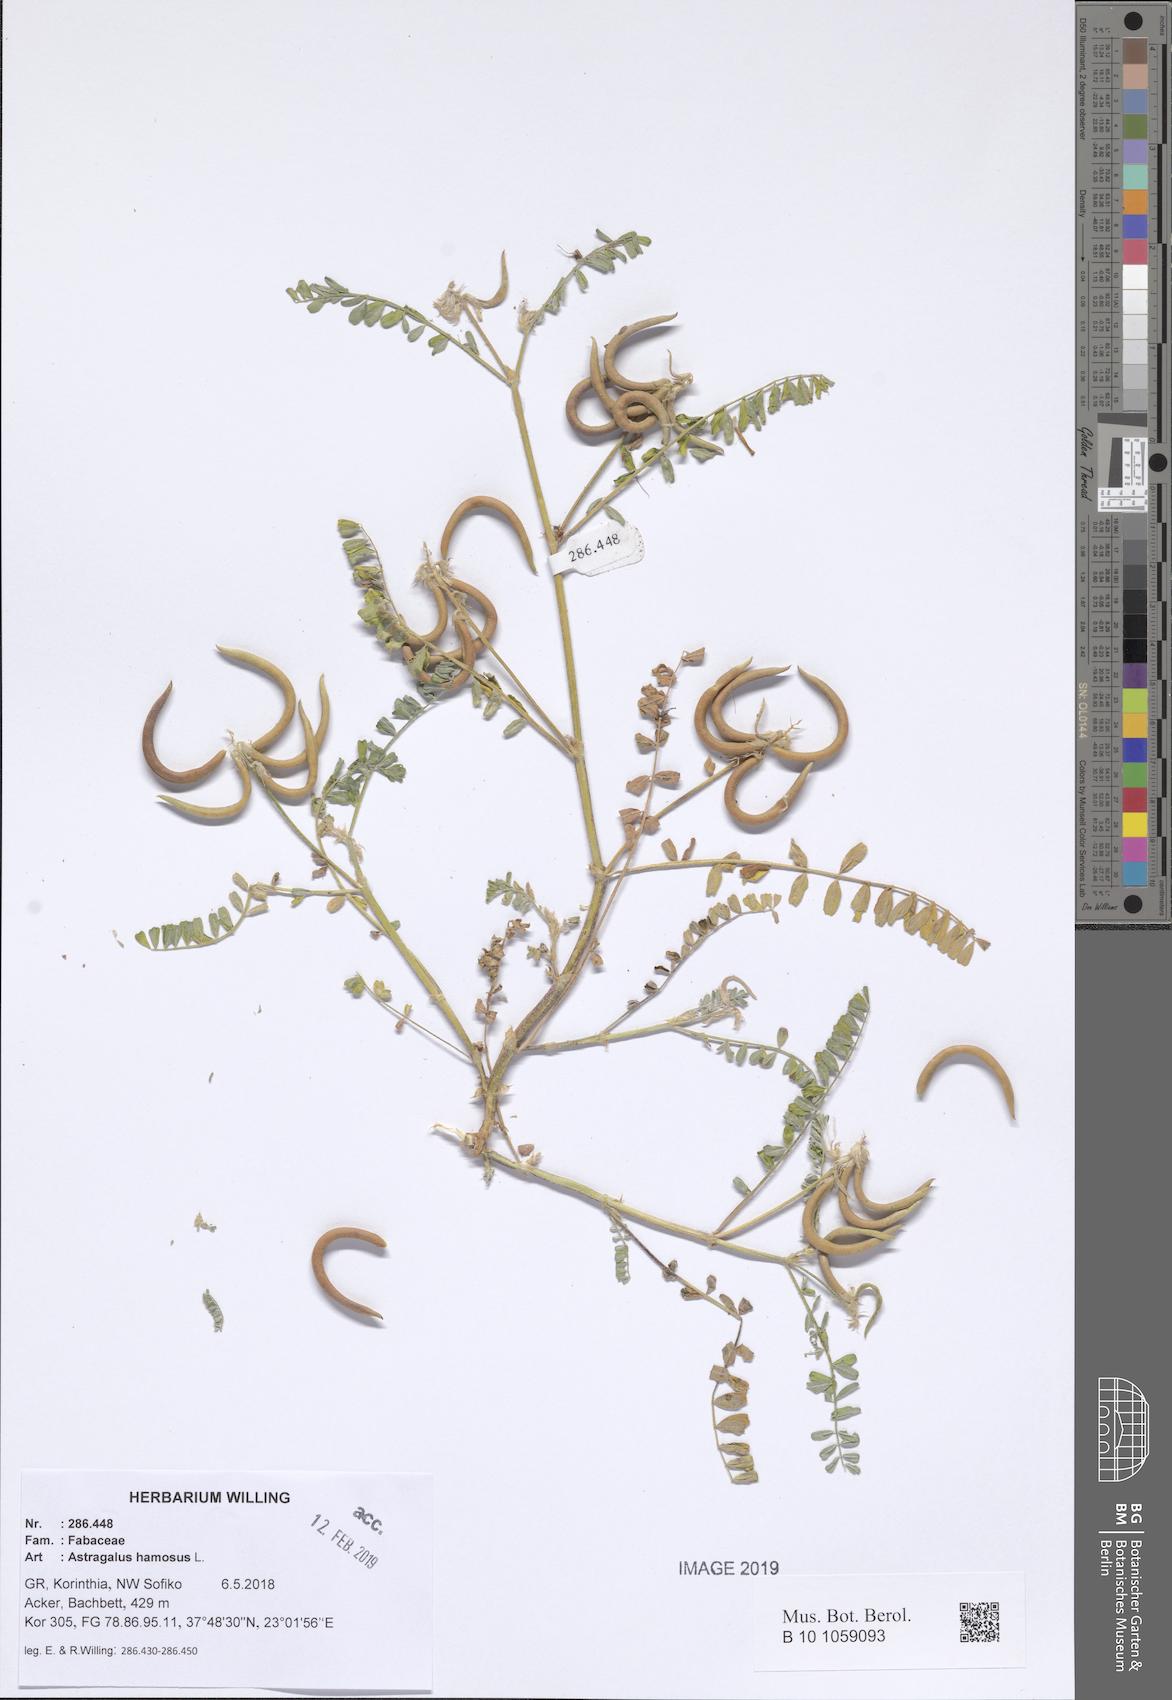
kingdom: Plantae
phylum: Tracheophyta
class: Magnoliopsida
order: Fabales
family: Fabaceae
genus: Astragalus
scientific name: Astragalus hamosus
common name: European milkvetch
